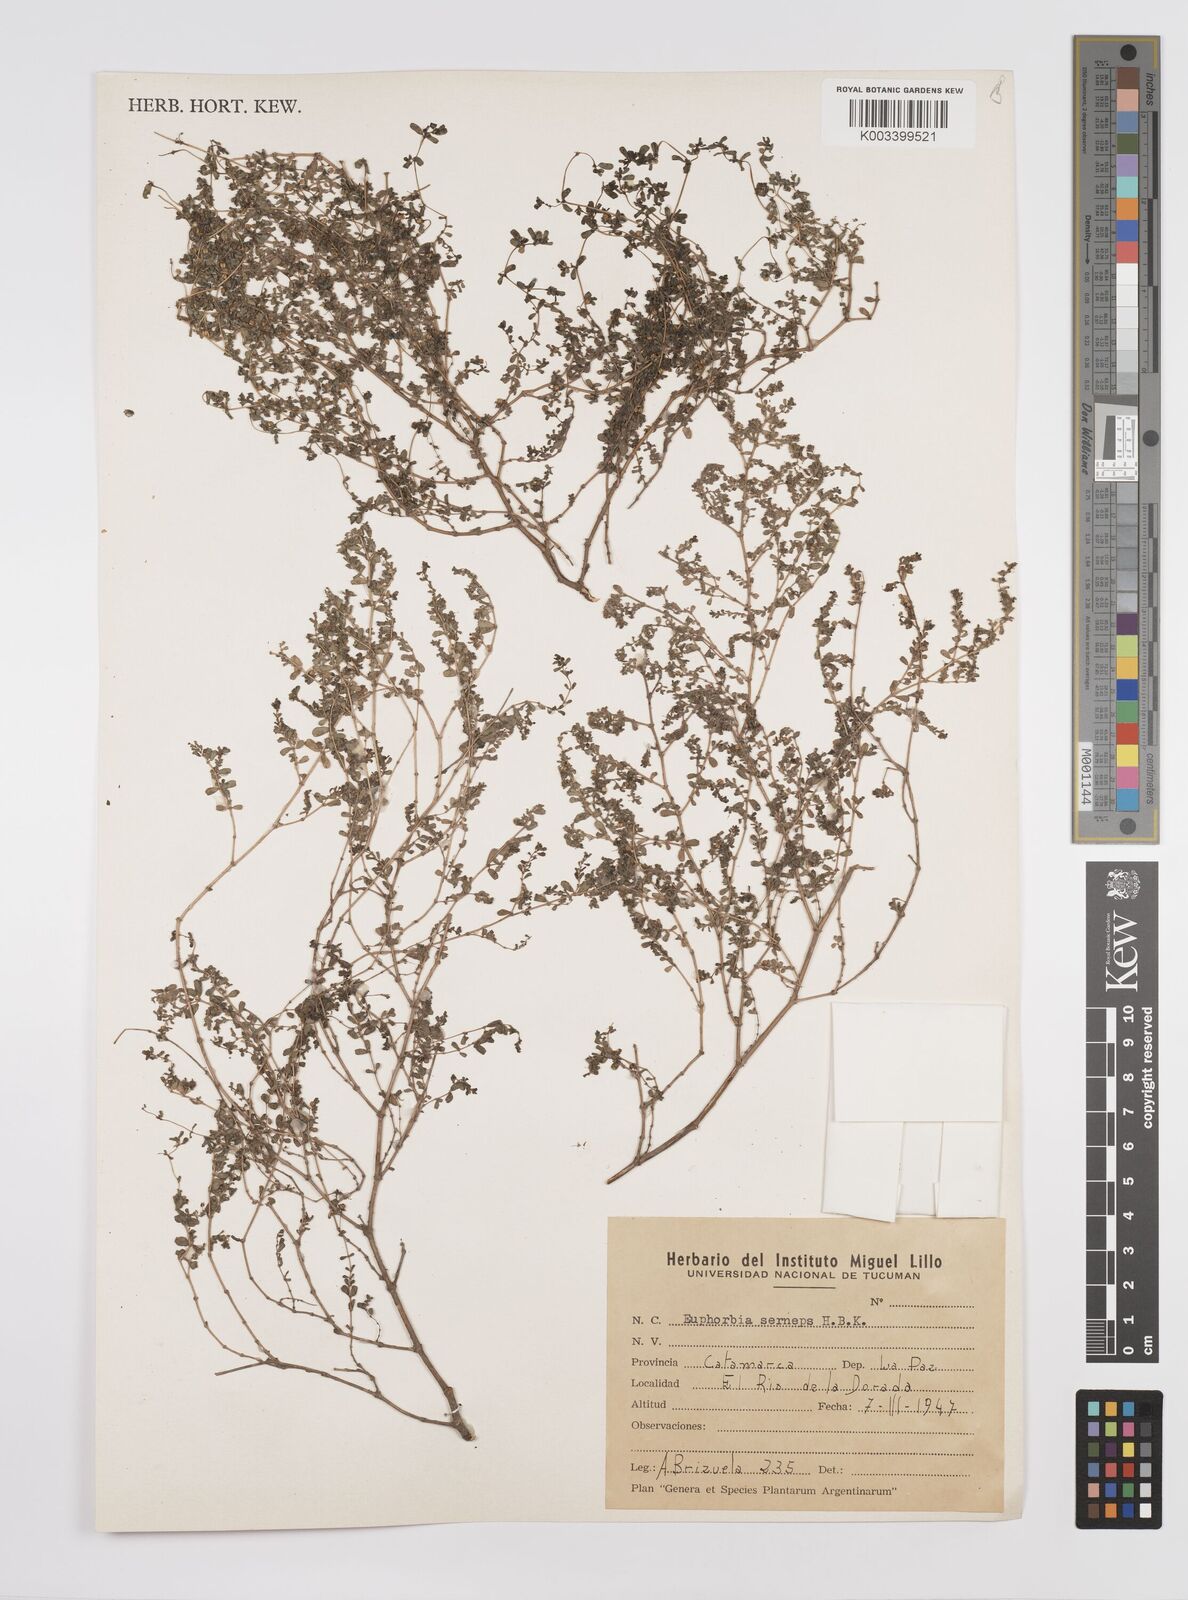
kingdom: Plantae
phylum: Tracheophyta
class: Magnoliopsida
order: Malpighiales
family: Euphorbiaceae
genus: Euphorbia
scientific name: Euphorbia
